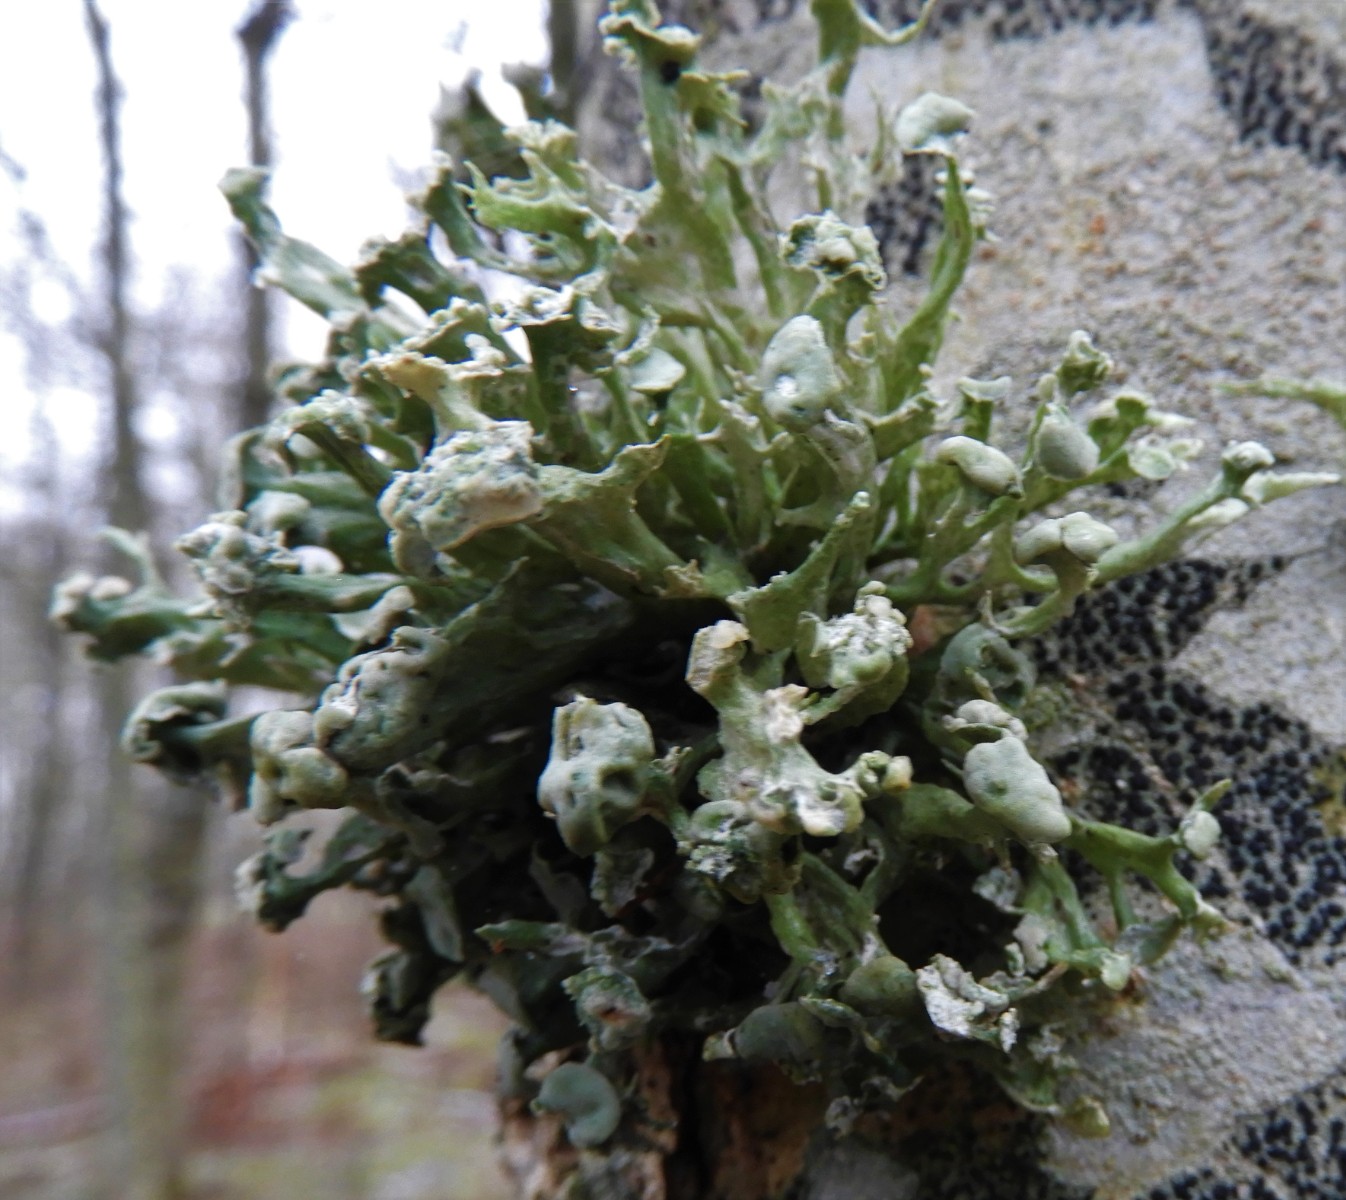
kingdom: Fungi
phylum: Ascomycota
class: Lecanoromycetes
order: Lecanorales
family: Ramalinaceae
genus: Ramalina
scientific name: Ramalina fastigiata
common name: tue-grenlav
